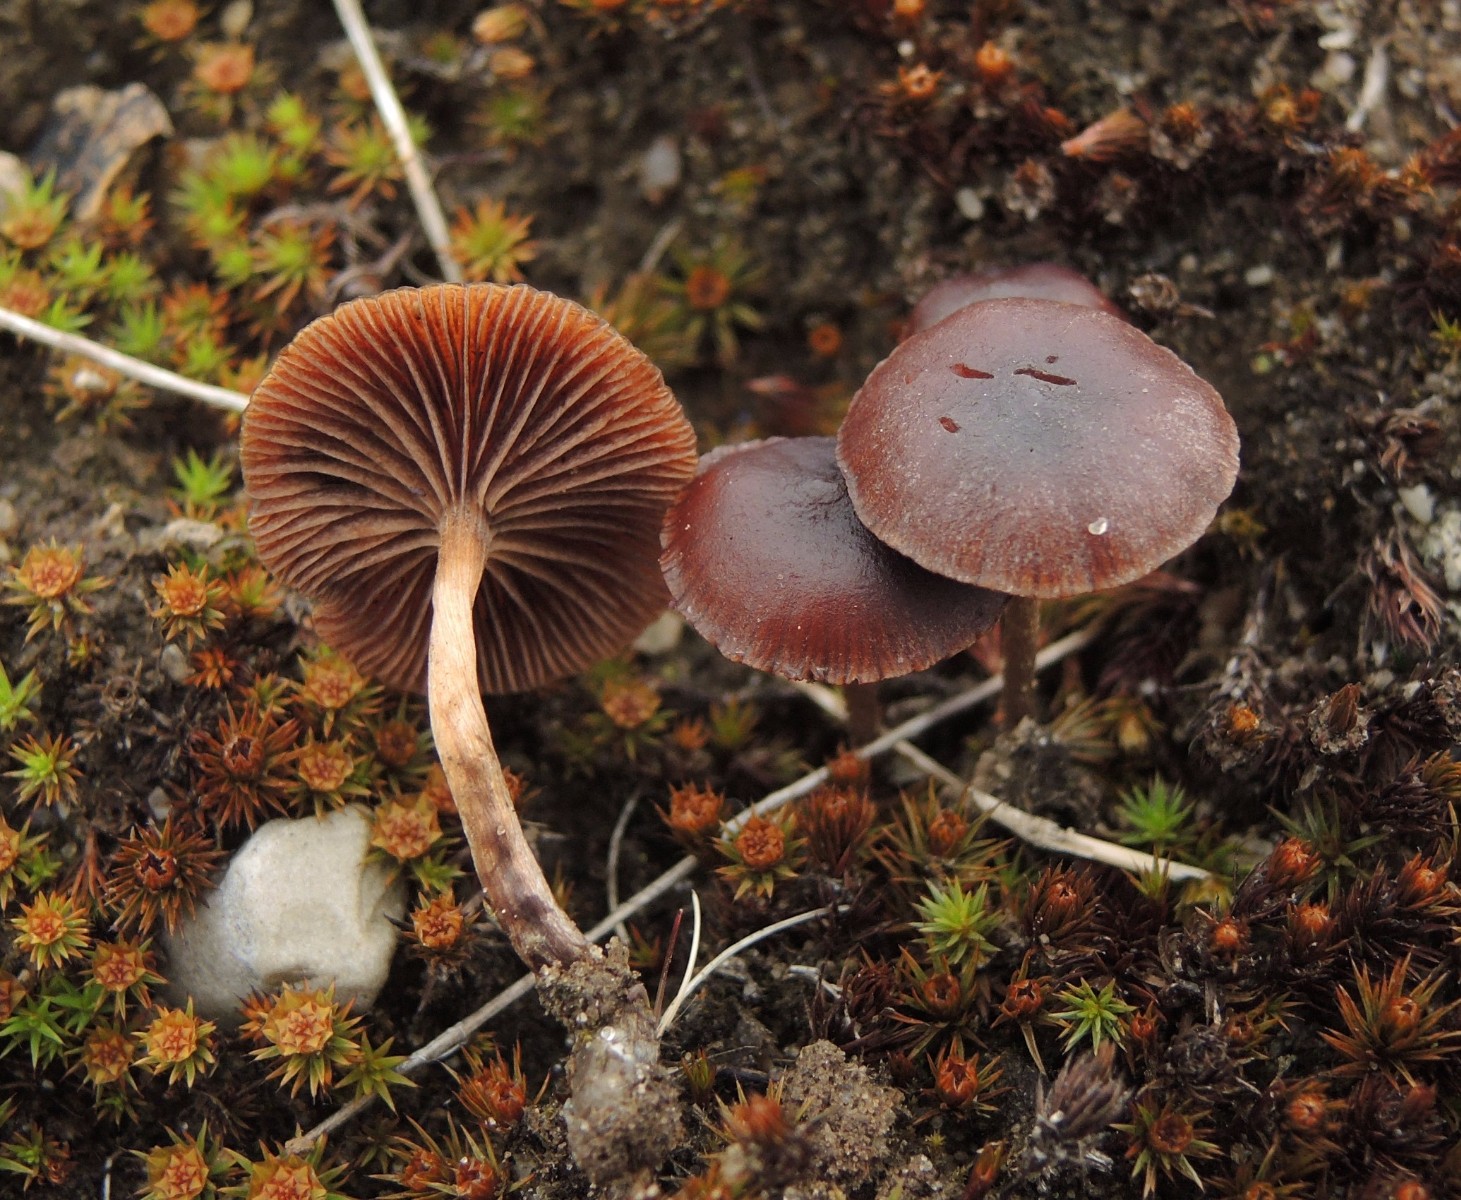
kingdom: Fungi
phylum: Basidiomycota
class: Agaricomycetes
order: Agaricales
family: Strophariaceae
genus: Deconica
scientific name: Deconica montana
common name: rødbrun stråhat
